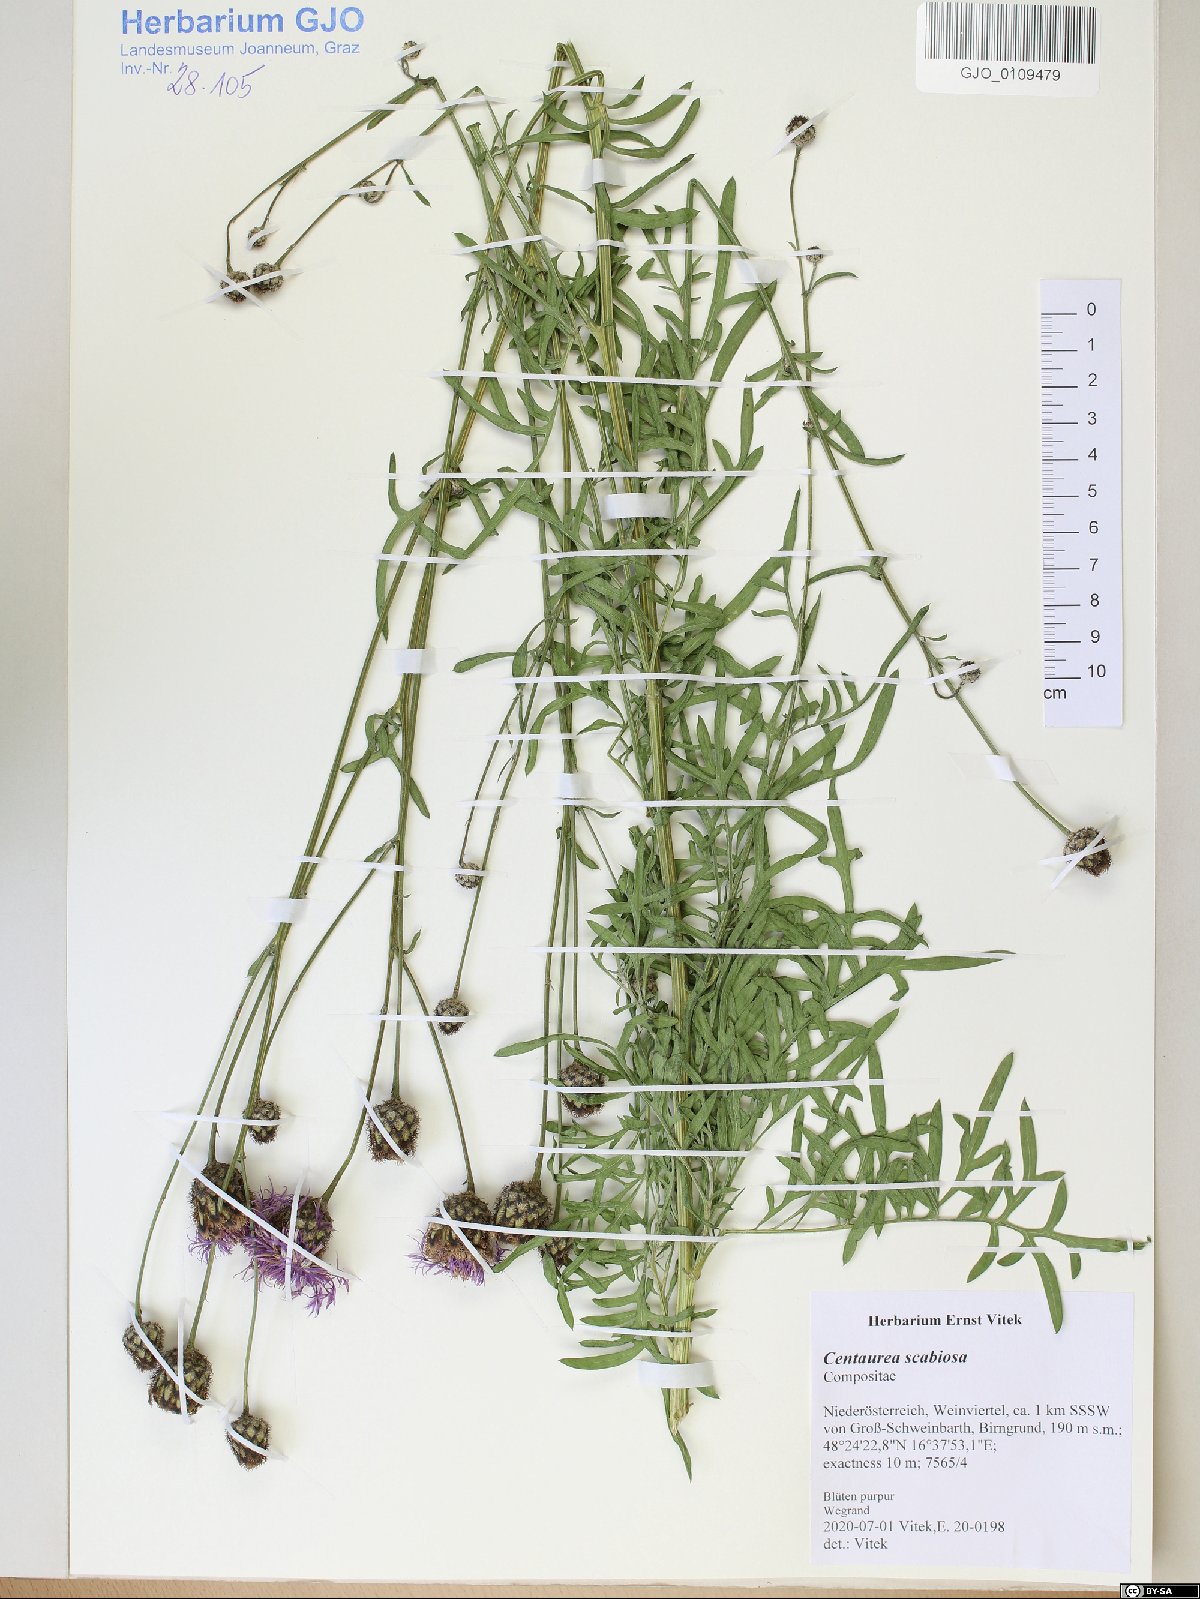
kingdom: Plantae
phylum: Tracheophyta
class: Magnoliopsida
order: Asterales
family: Asteraceae
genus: Centaurea
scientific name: Centaurea scabiosa
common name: Greater knapweed
